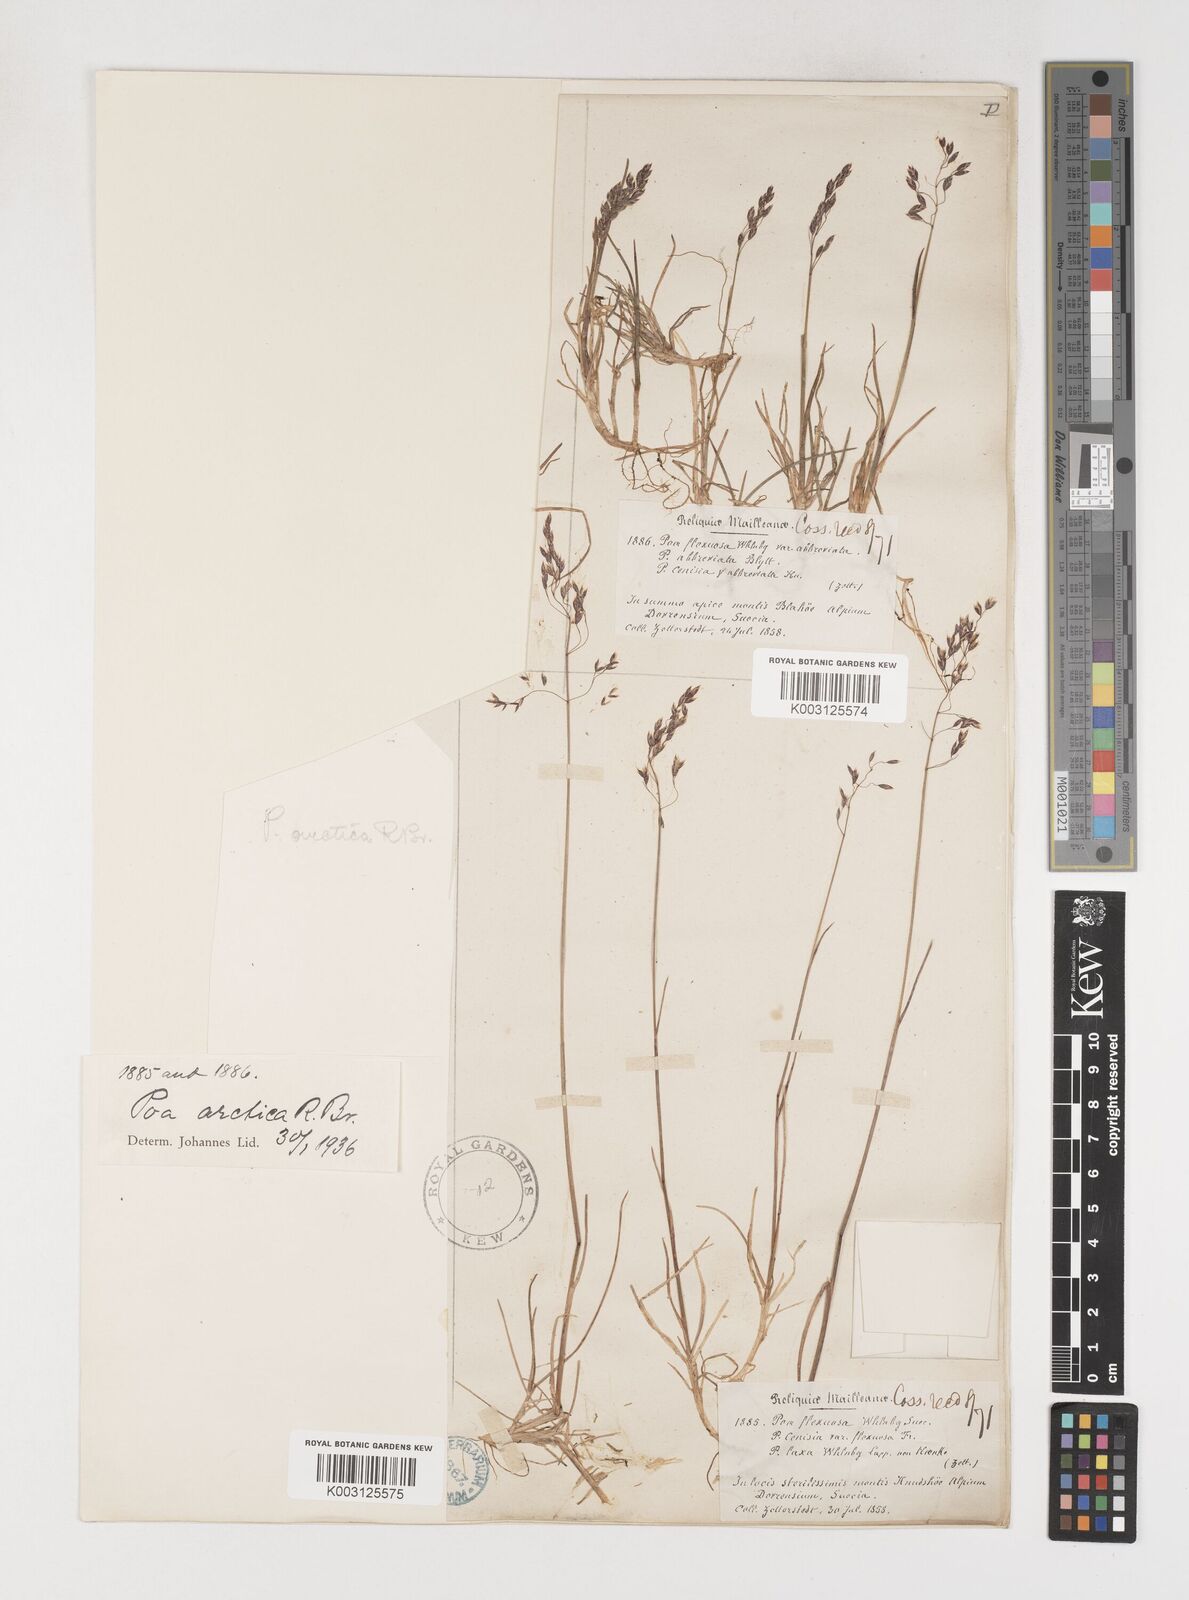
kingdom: Plantae
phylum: Tracheophyta
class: Liliopsida
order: Poales
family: Poaceae
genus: Poa
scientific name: Poa arctica
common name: Arctic bluegrass
